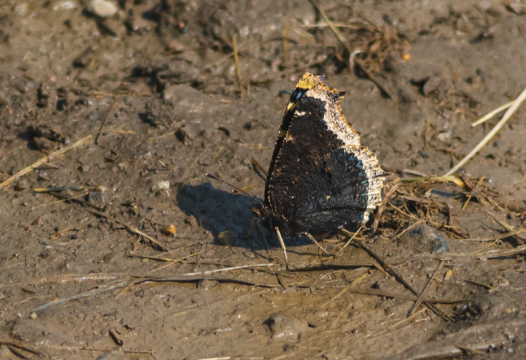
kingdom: Animalia
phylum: Arthropoda
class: Insecta
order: Lepidoptera
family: Nymphalidae
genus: Nymphalis
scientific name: Nymphalis antiopa
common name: Mourning Cloak
